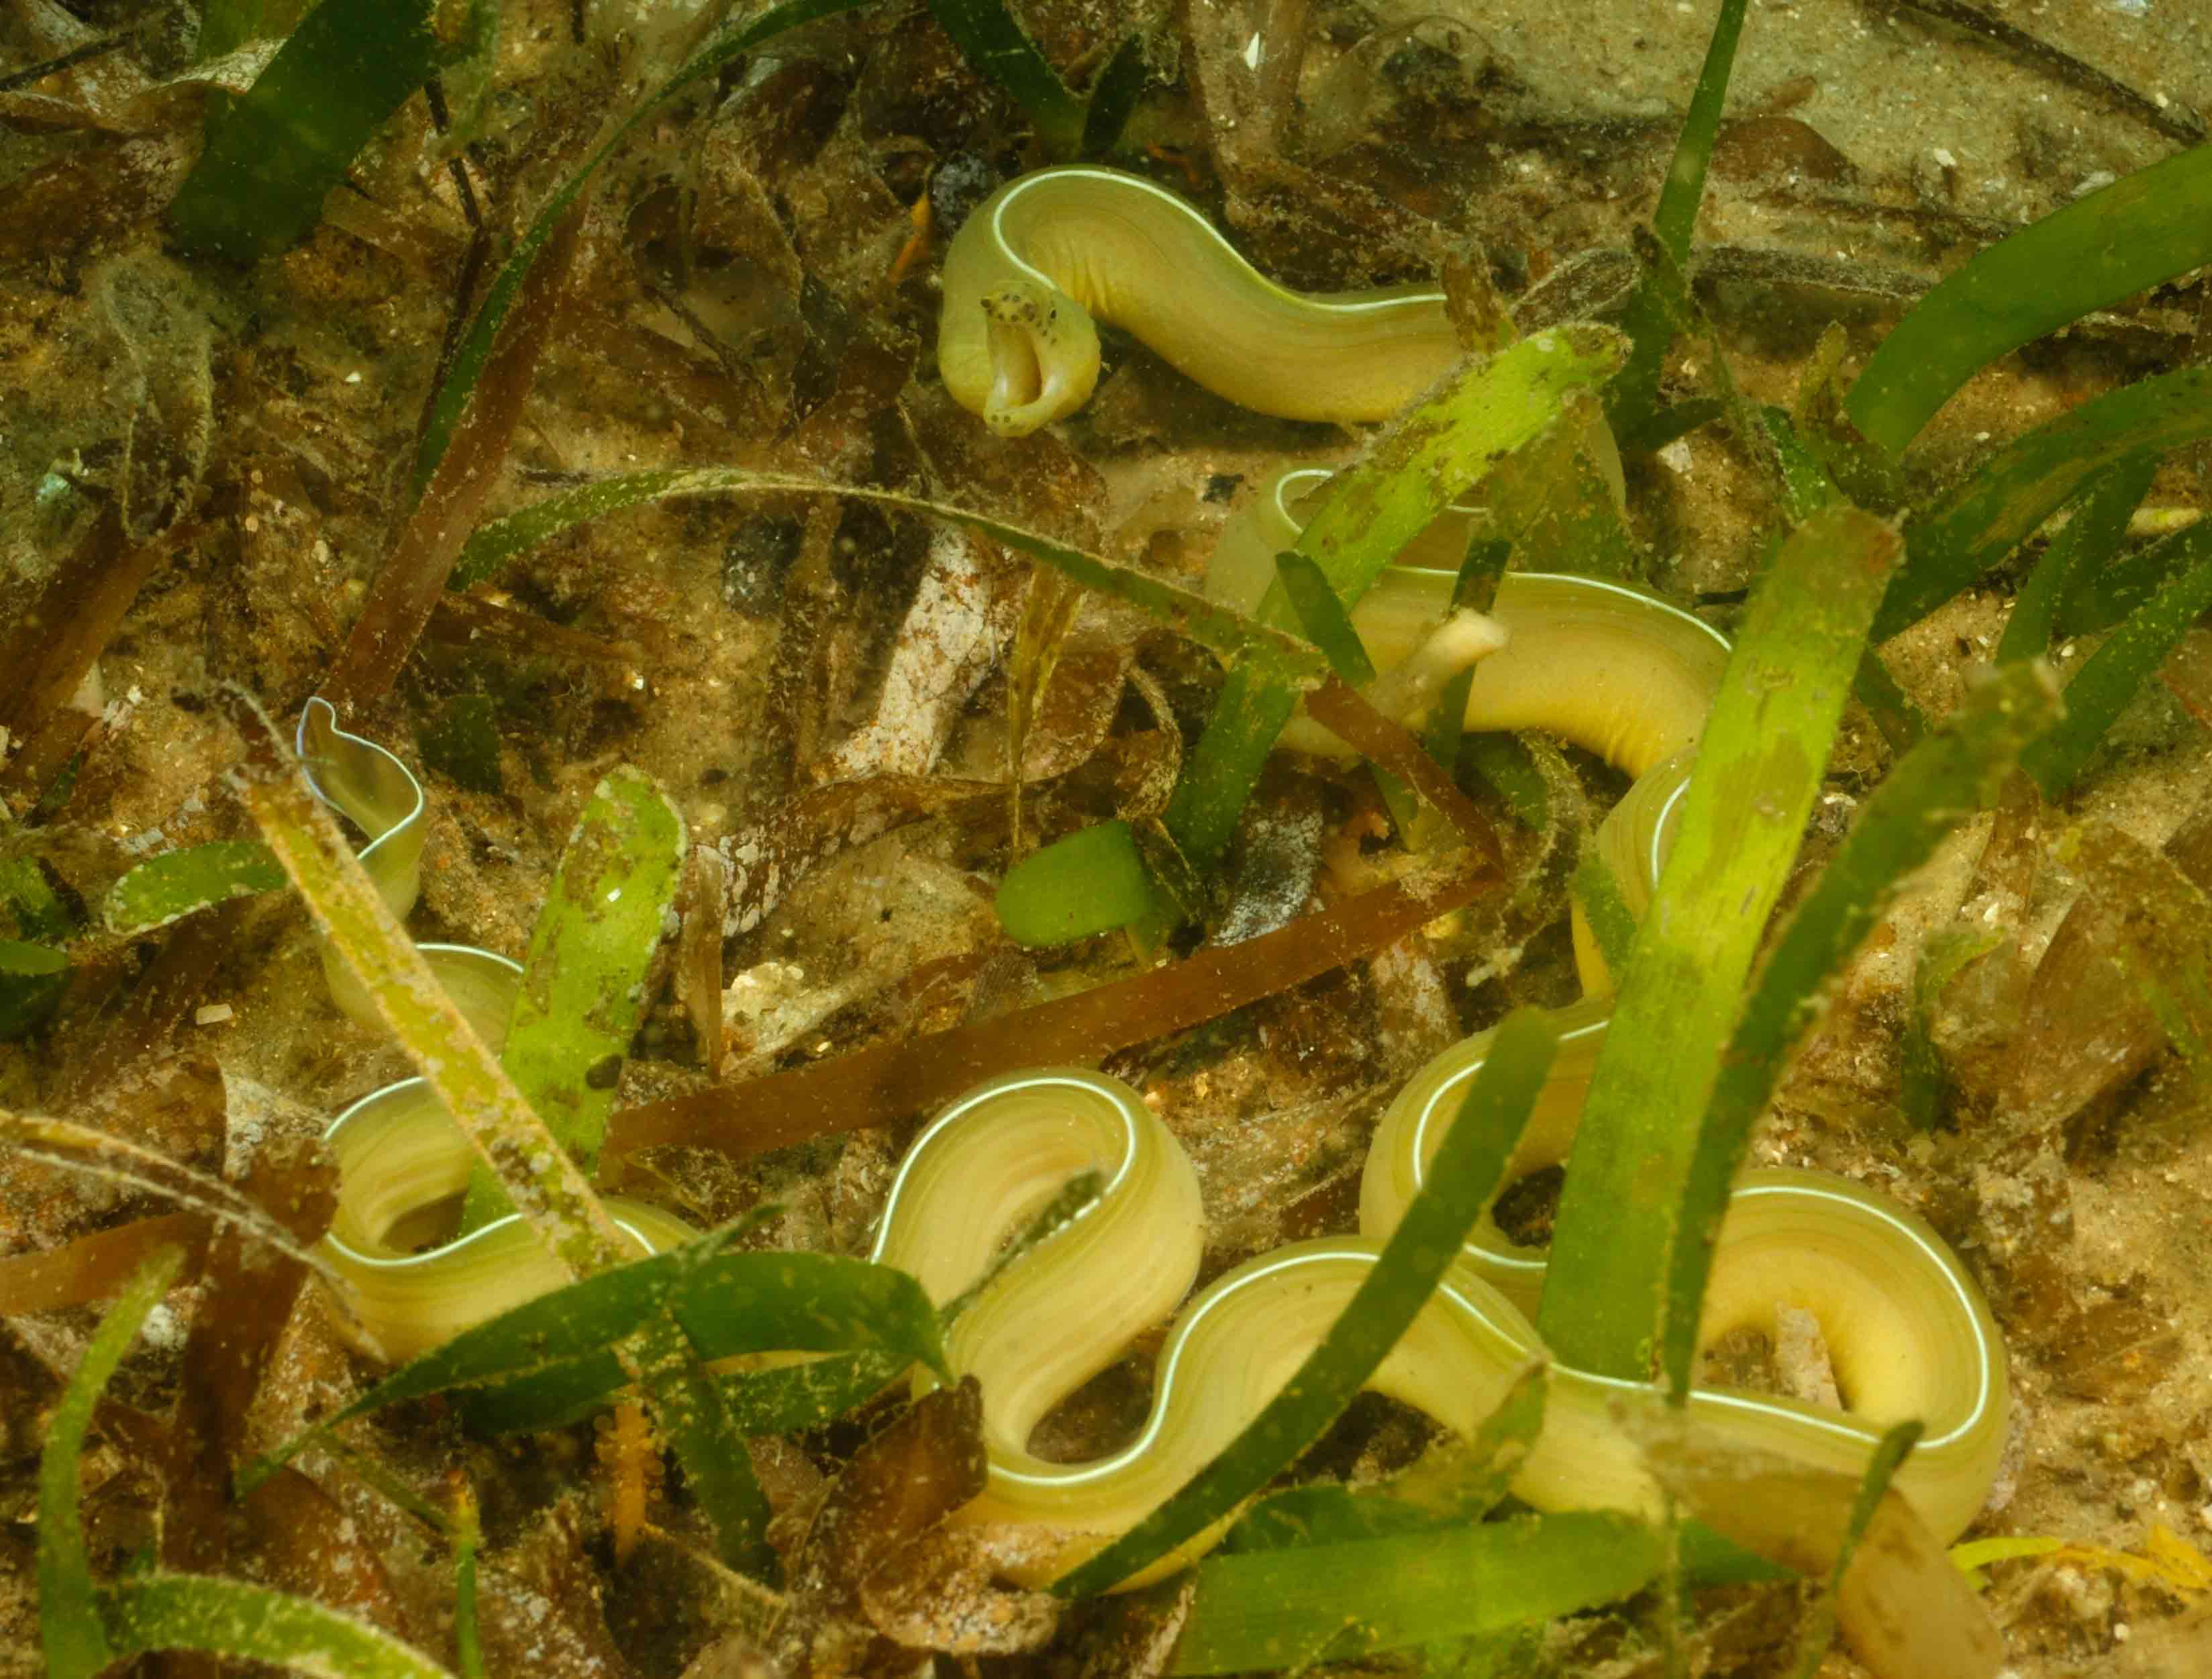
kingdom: Animalia
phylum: Chordata
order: Anguilliformes
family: Muraenidae
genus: Pseudechidna
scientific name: Pseudechidna brummeri
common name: White ribbon eel
